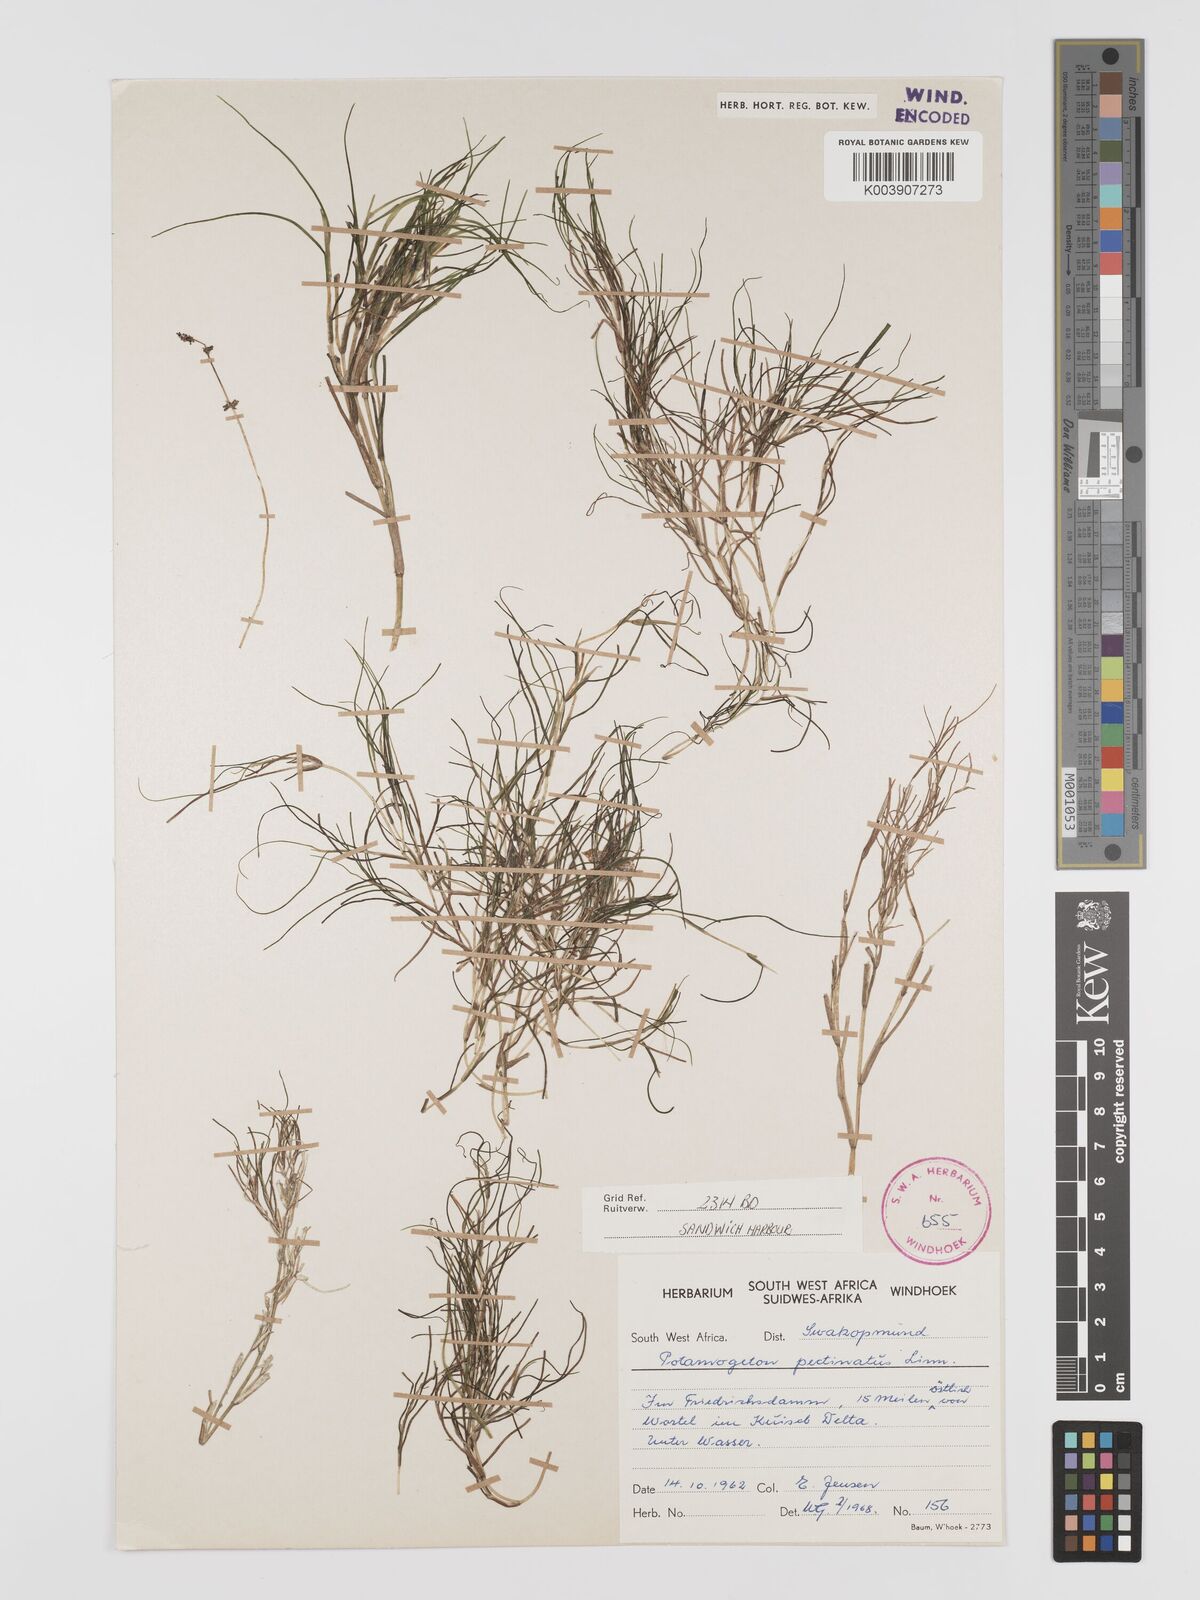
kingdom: Plantae
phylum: Tracheophyta
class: Liliopsida
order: Alismatales
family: Potamogetonaceae
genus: Stuckenia
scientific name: Stuckenia pectinata
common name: Sago pondweed
